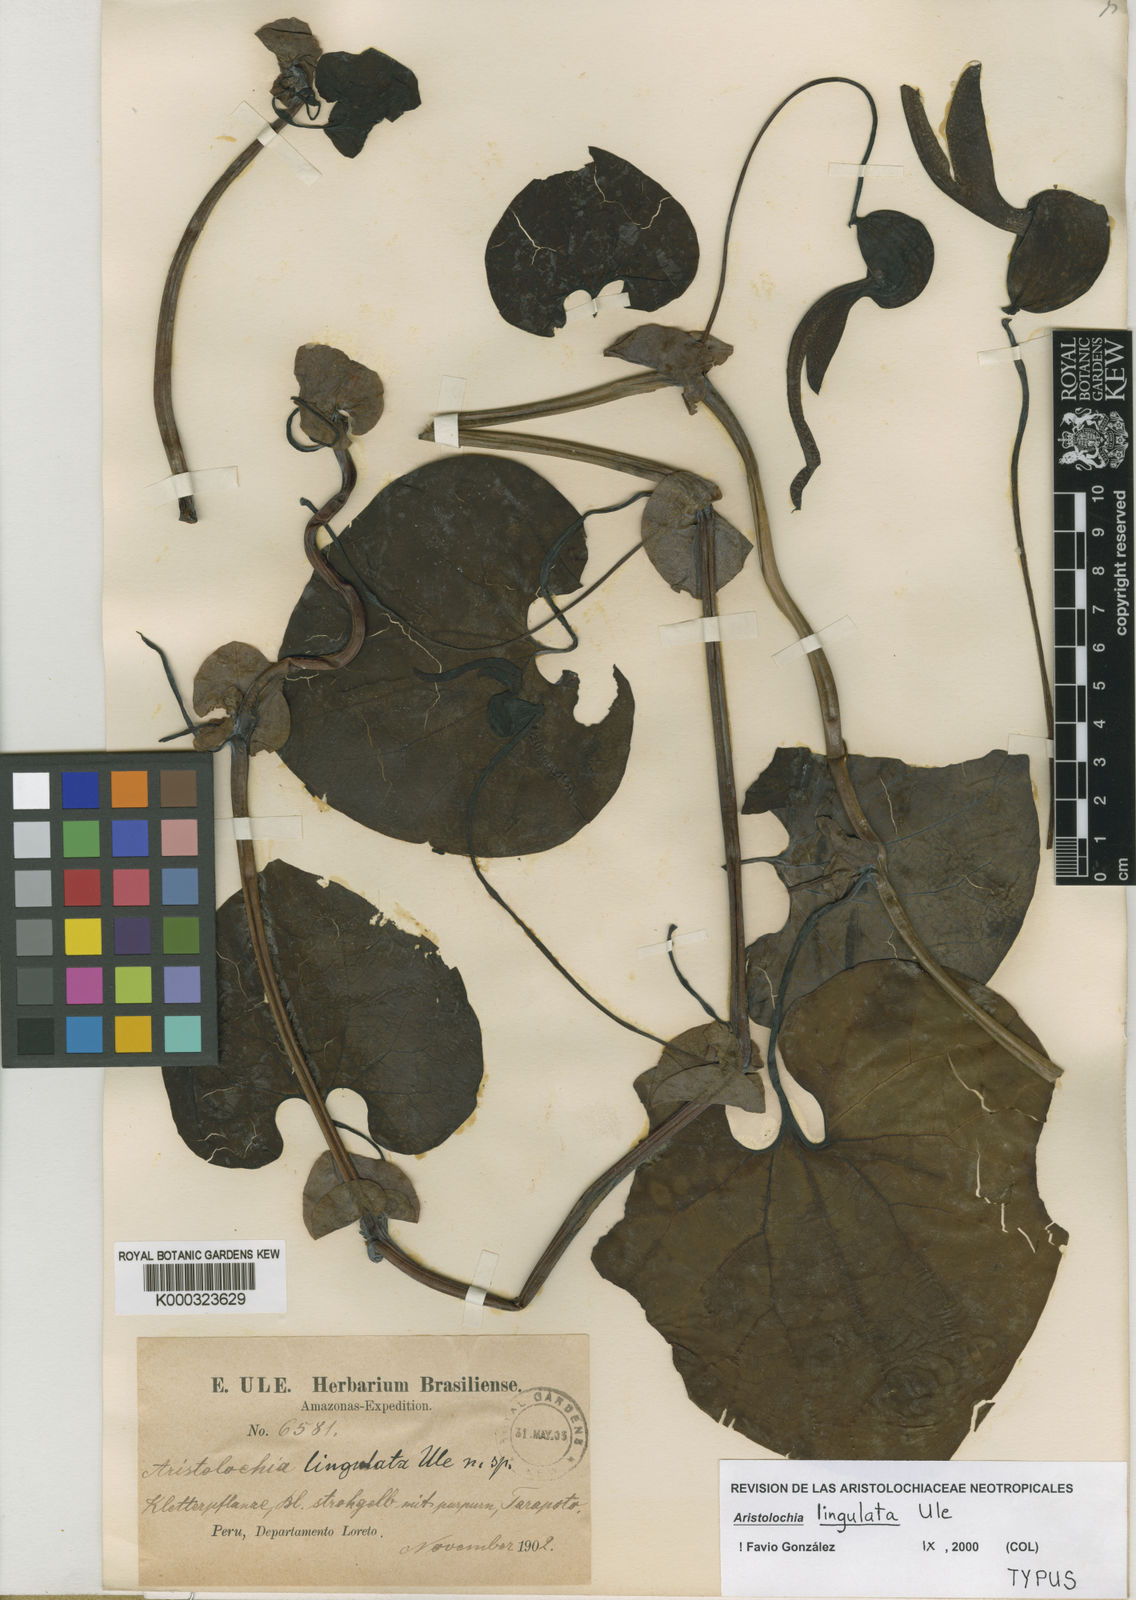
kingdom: Plantae
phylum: Tracheophyta
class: Magnoliopsida
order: Piperales
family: Aristolochiaceae
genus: Aristolochia
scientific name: Aristolochia
